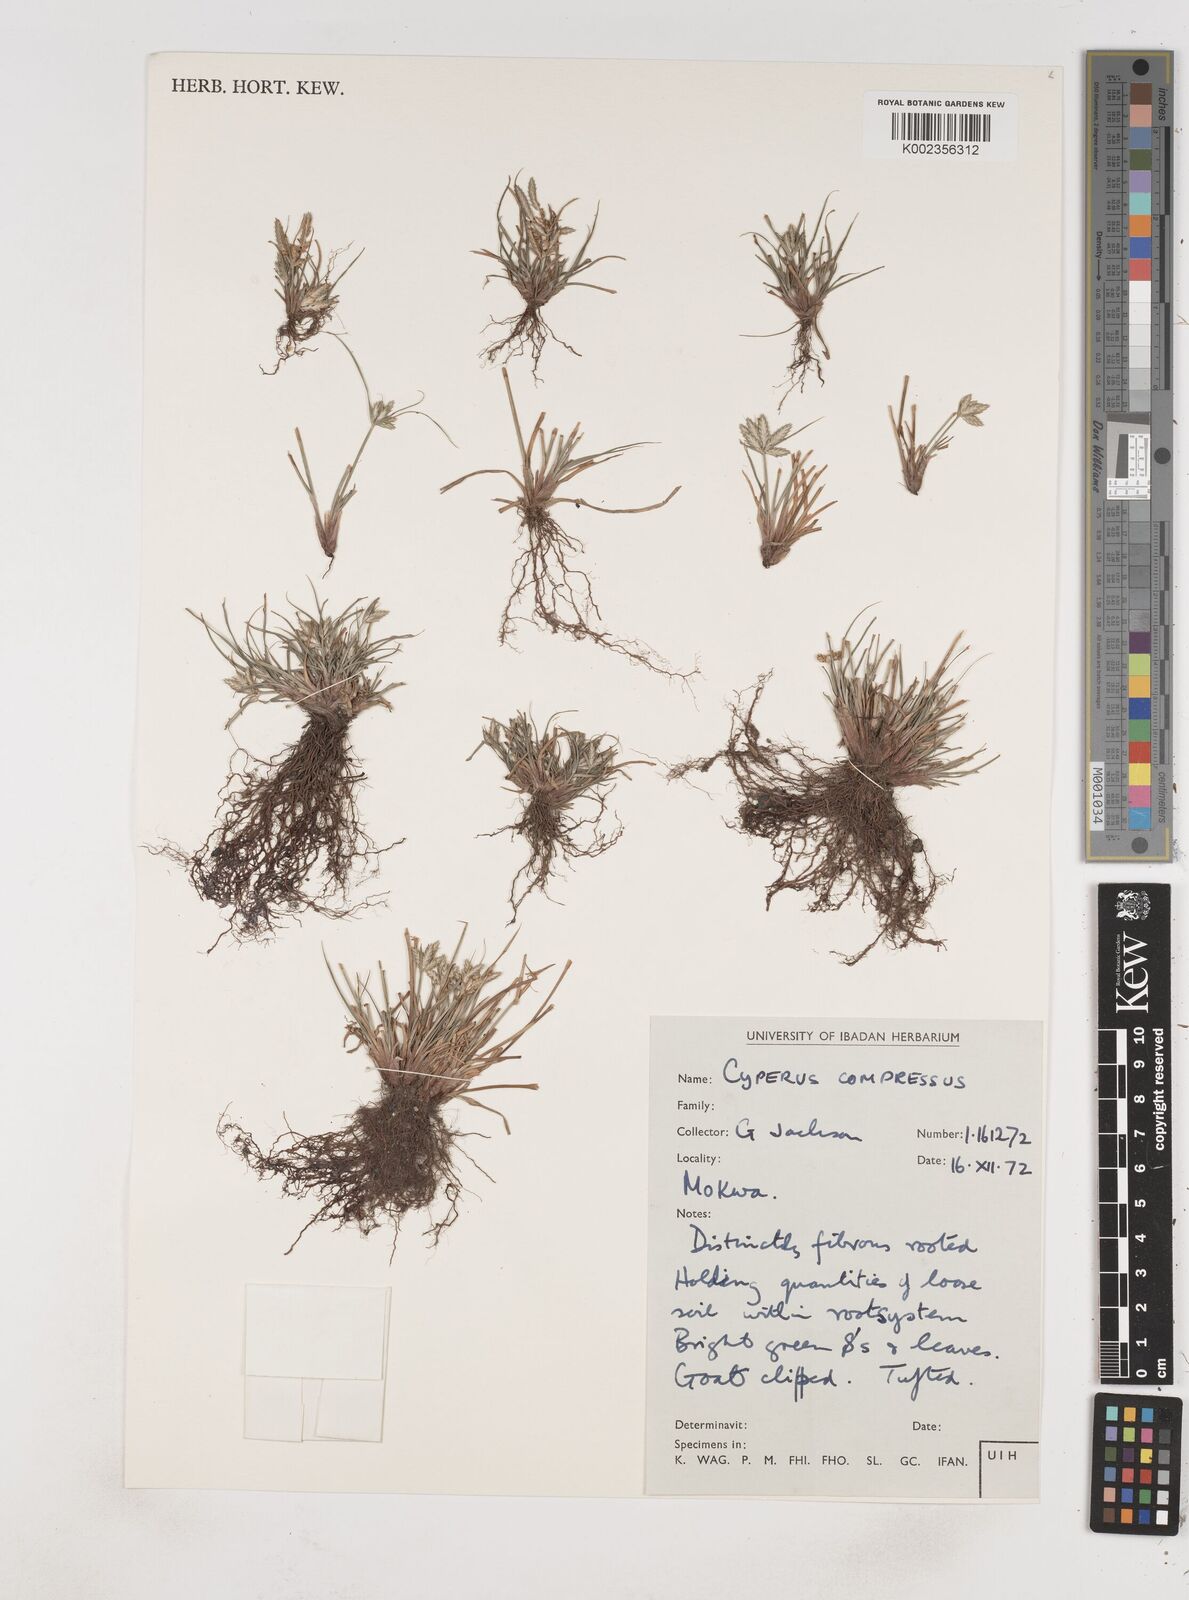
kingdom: Plantae
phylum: Tracheophyta
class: Liliopsida
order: Poales
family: Cyperaceae
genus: Cyperus
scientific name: Cyperus compressus
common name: Poorland flatsedge
